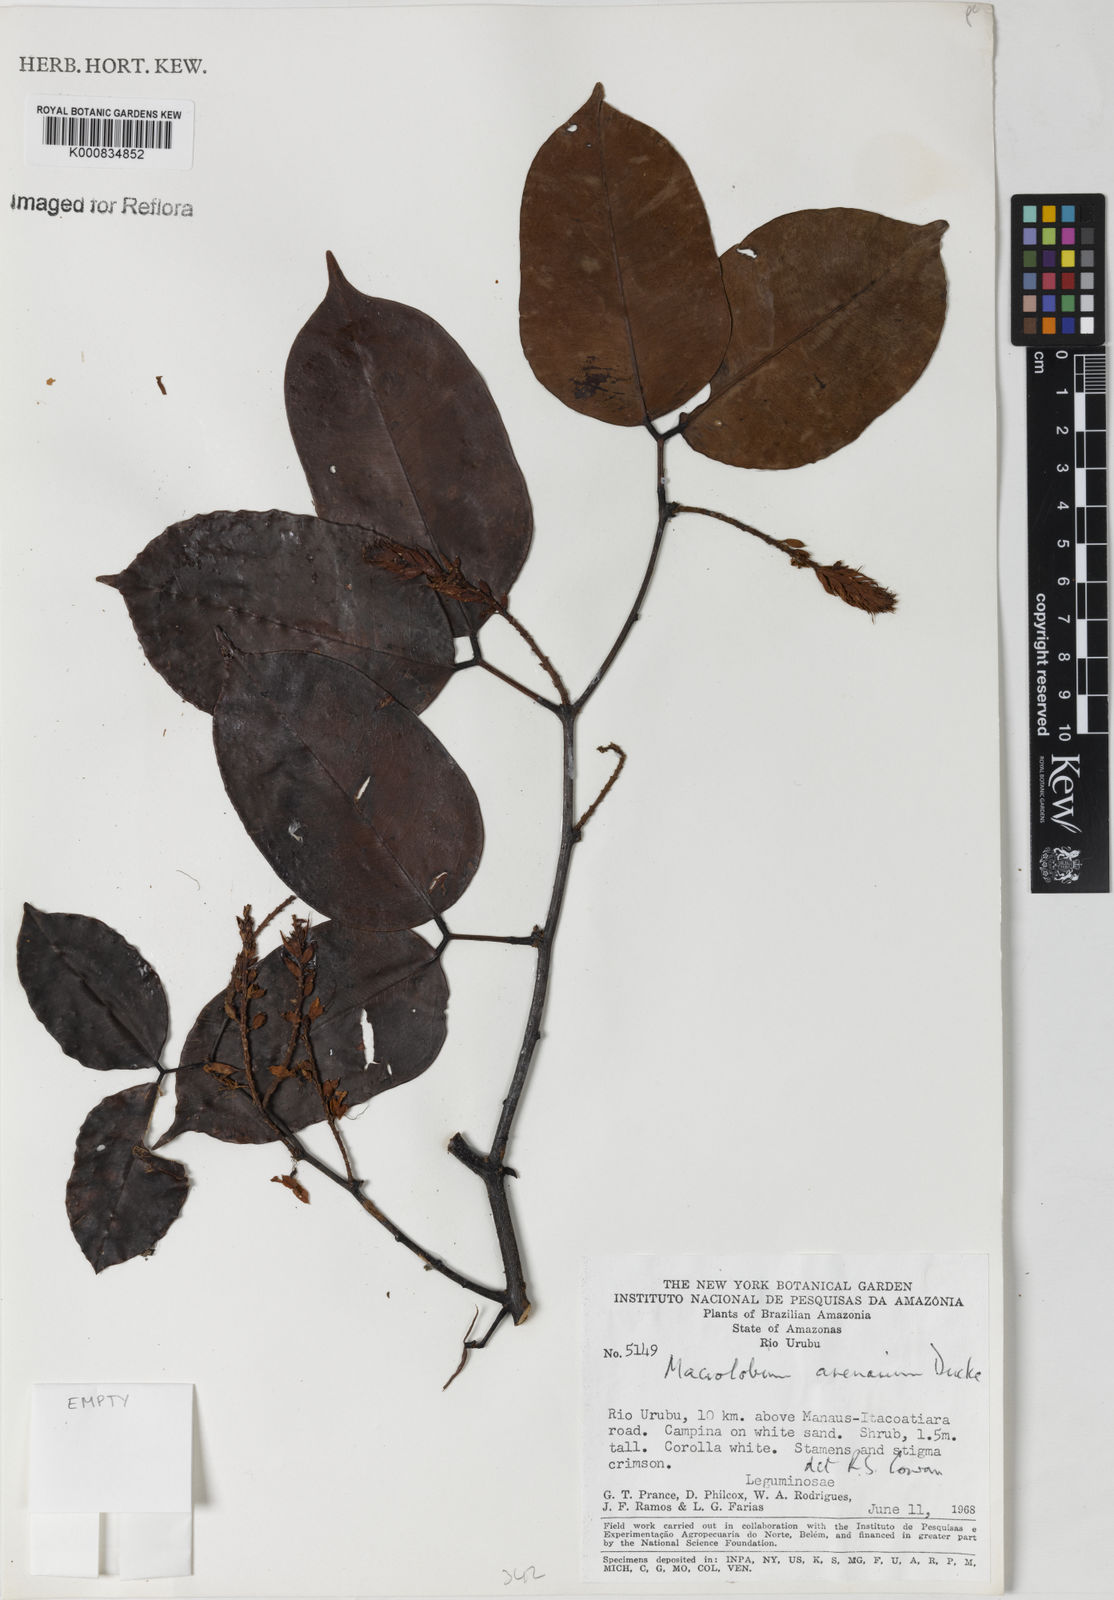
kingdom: Plantae
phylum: Tracheophyta
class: Magnoliopsida
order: Fabales
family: Fabaceae
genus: Macrolobium
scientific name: Macrolobium arenarium
